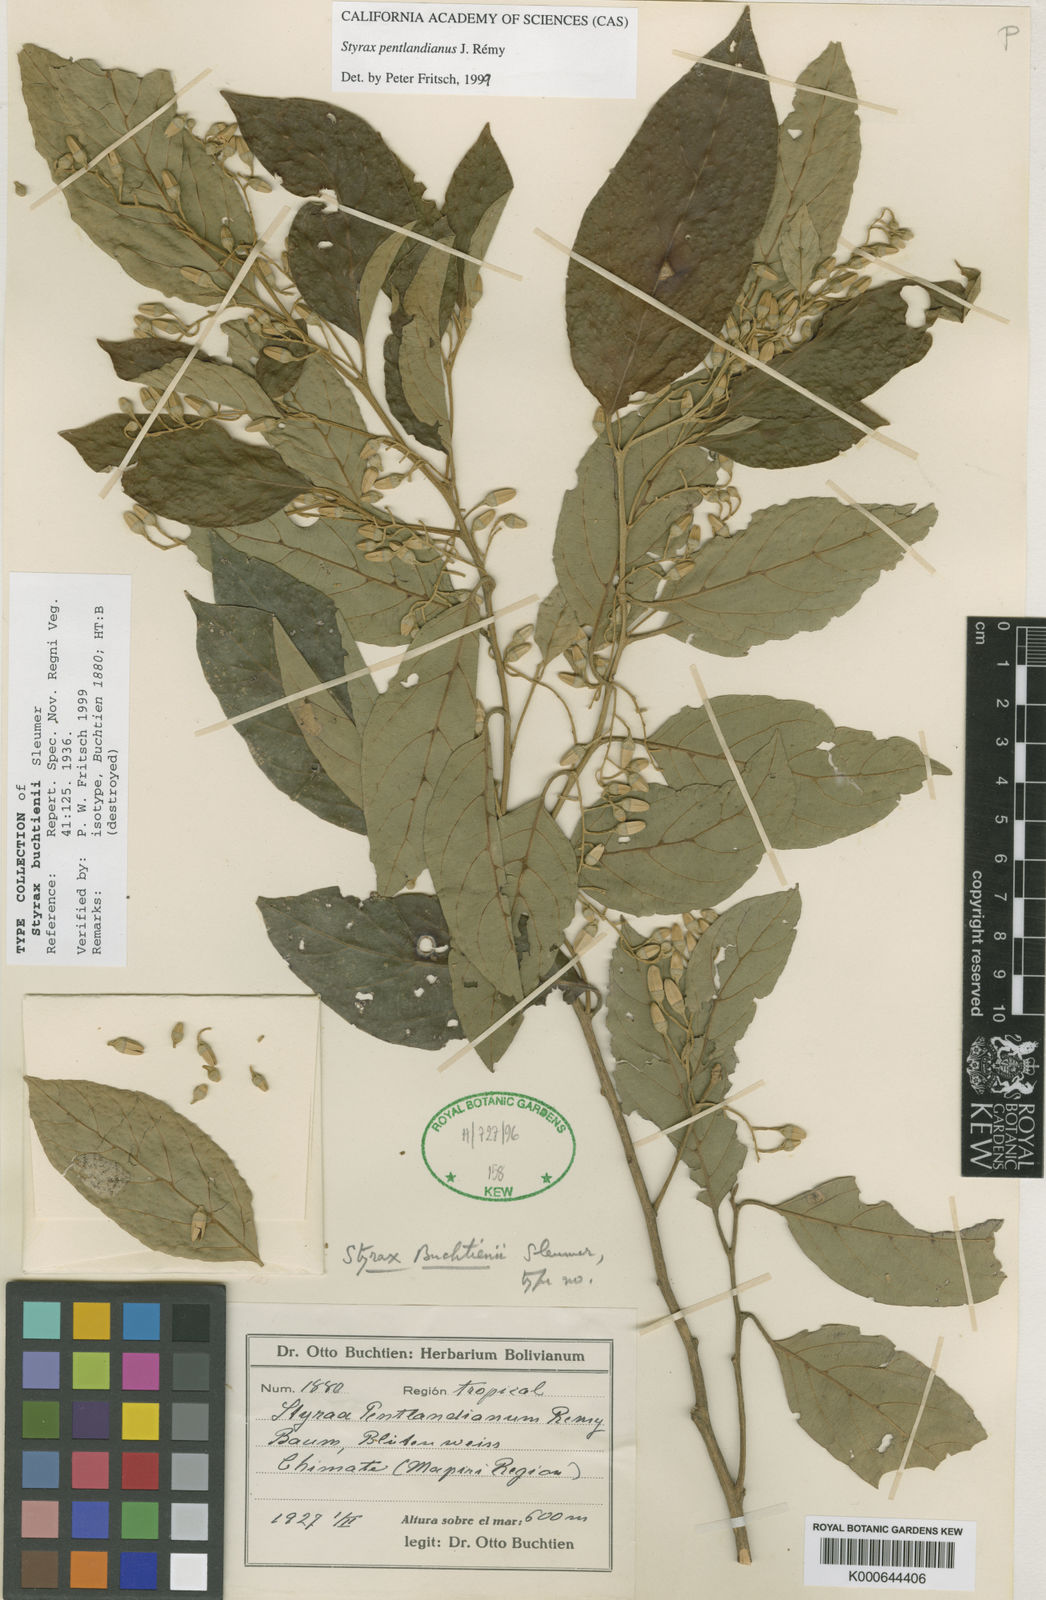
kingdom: Plantae
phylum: Tracheophyta
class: Magnoliopsida
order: Ericales
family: Styracaceae
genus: Styrax
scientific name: Styrax
